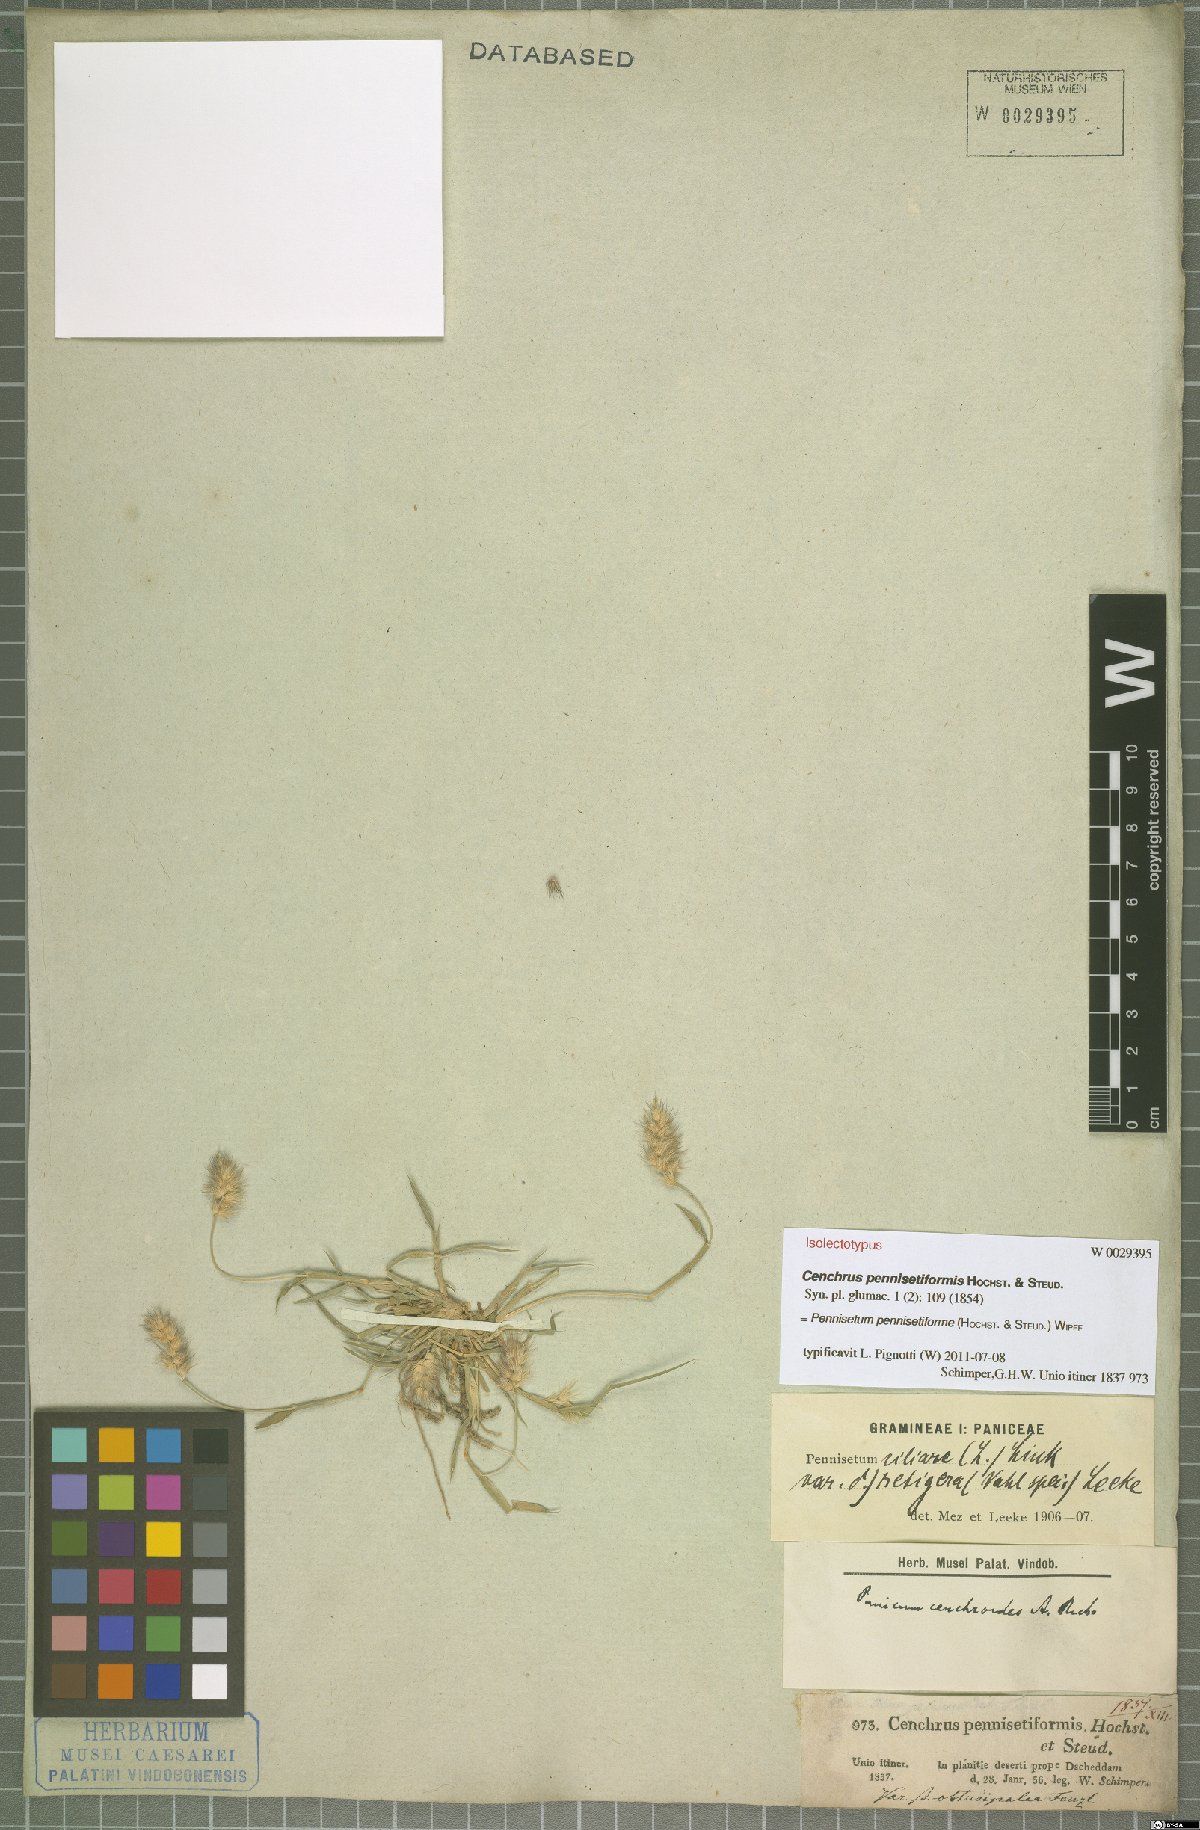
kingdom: Plantae
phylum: Tracheophyta
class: Liliopsida
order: Poales
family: Poaceae
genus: Cenchrus
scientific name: Cenchrus pennisetiformis
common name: Cloncurry
